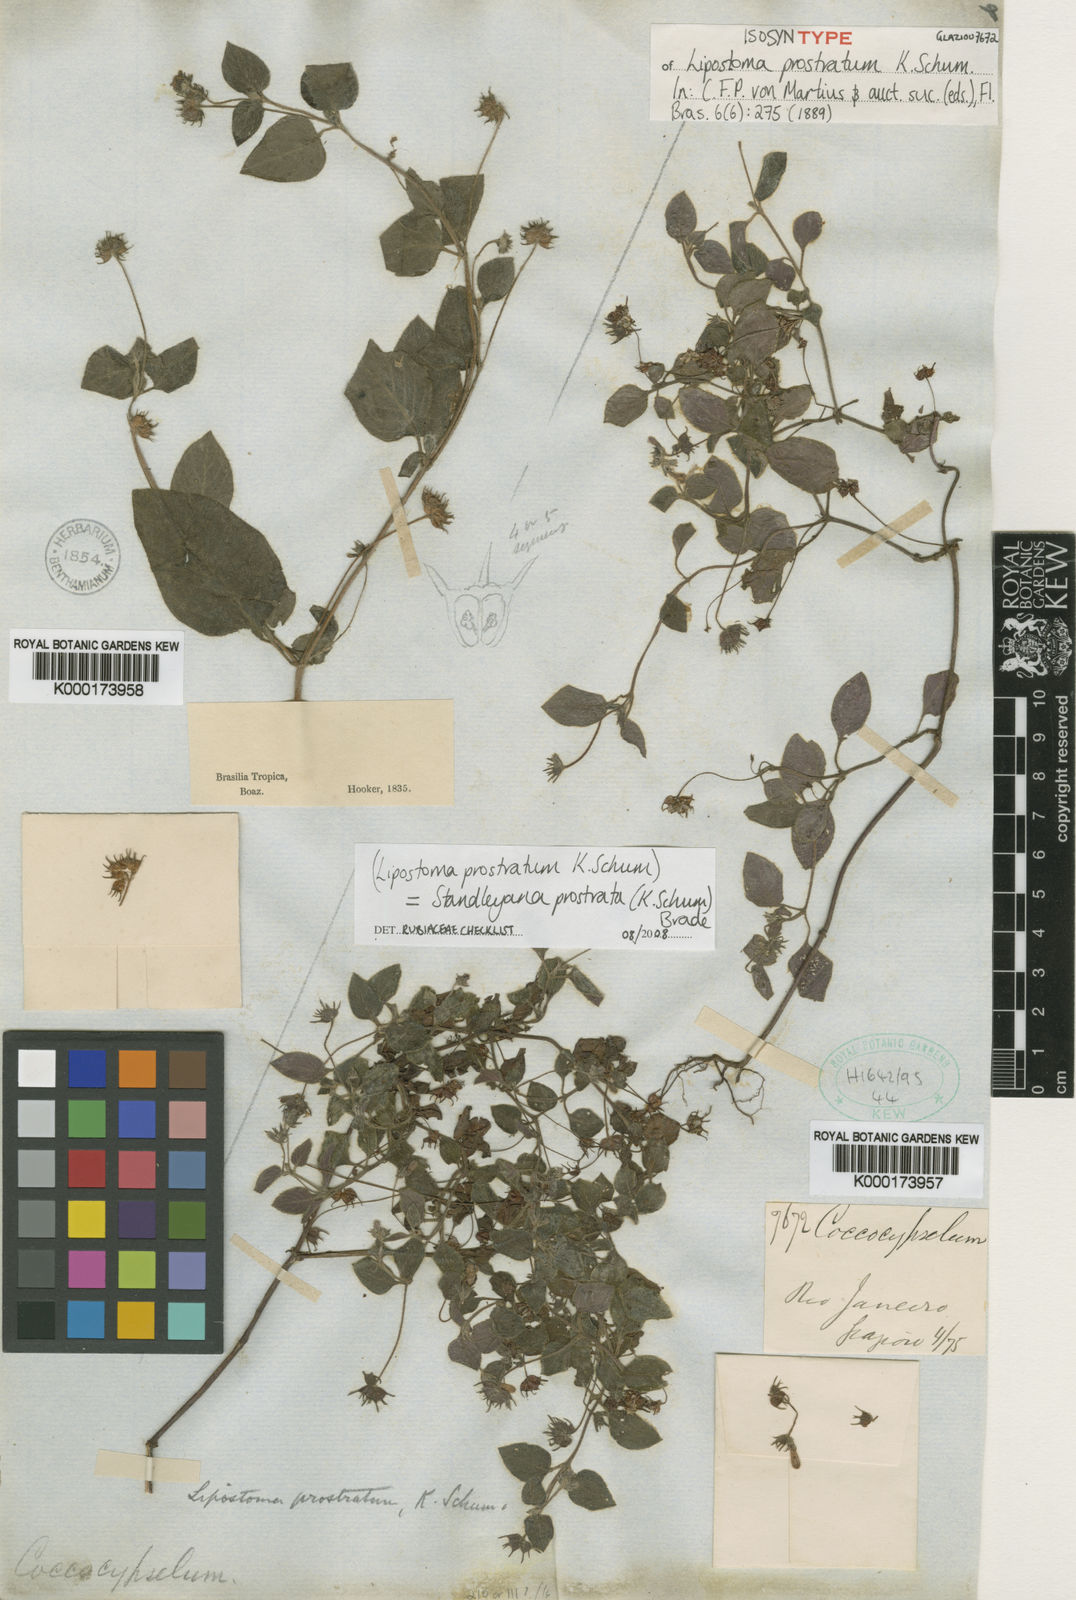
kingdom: Plantae
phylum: Tracheophyta
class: Magnoliopsida
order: Gentianales
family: Rubiaceae
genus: Standleya
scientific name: Standleya prostrata
